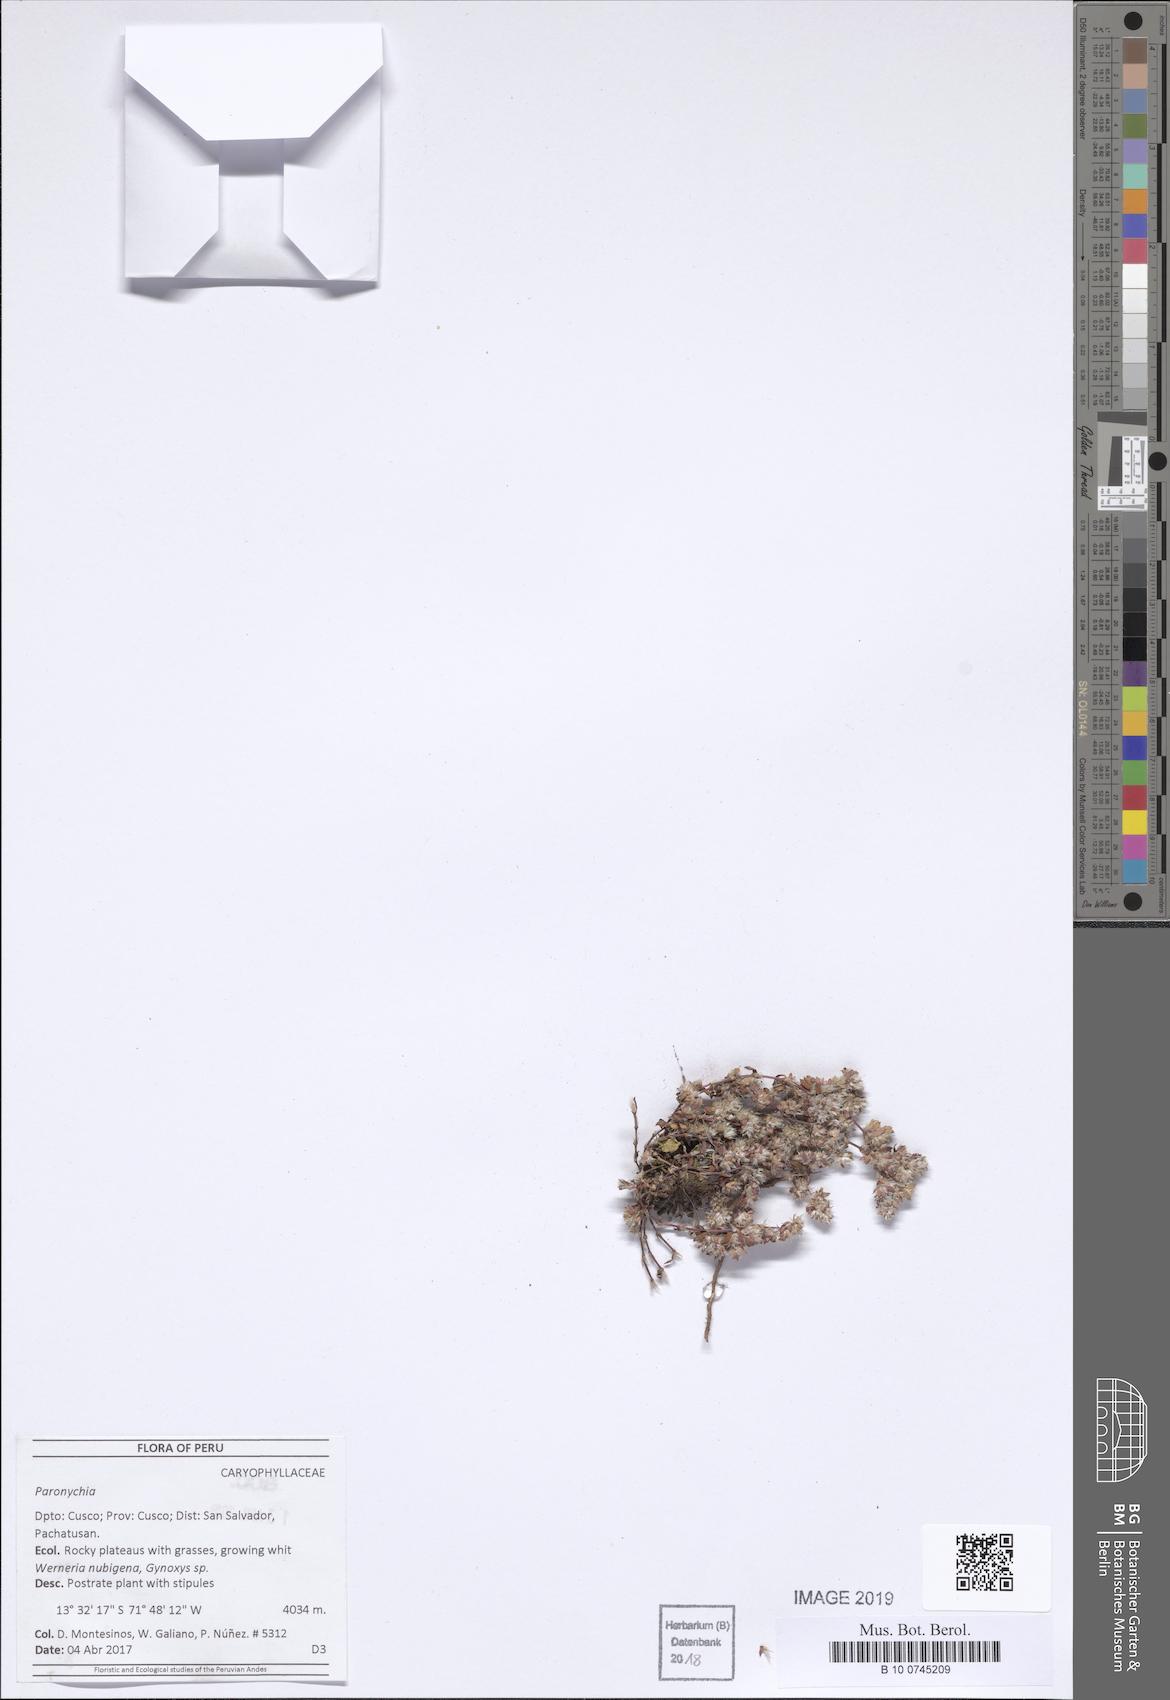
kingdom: Plantae
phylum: Tracheophyta
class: Magnoliopsida
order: Caryophyllales
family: Caryophyllaceae
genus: Paronychia
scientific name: Paronychia muschleri
